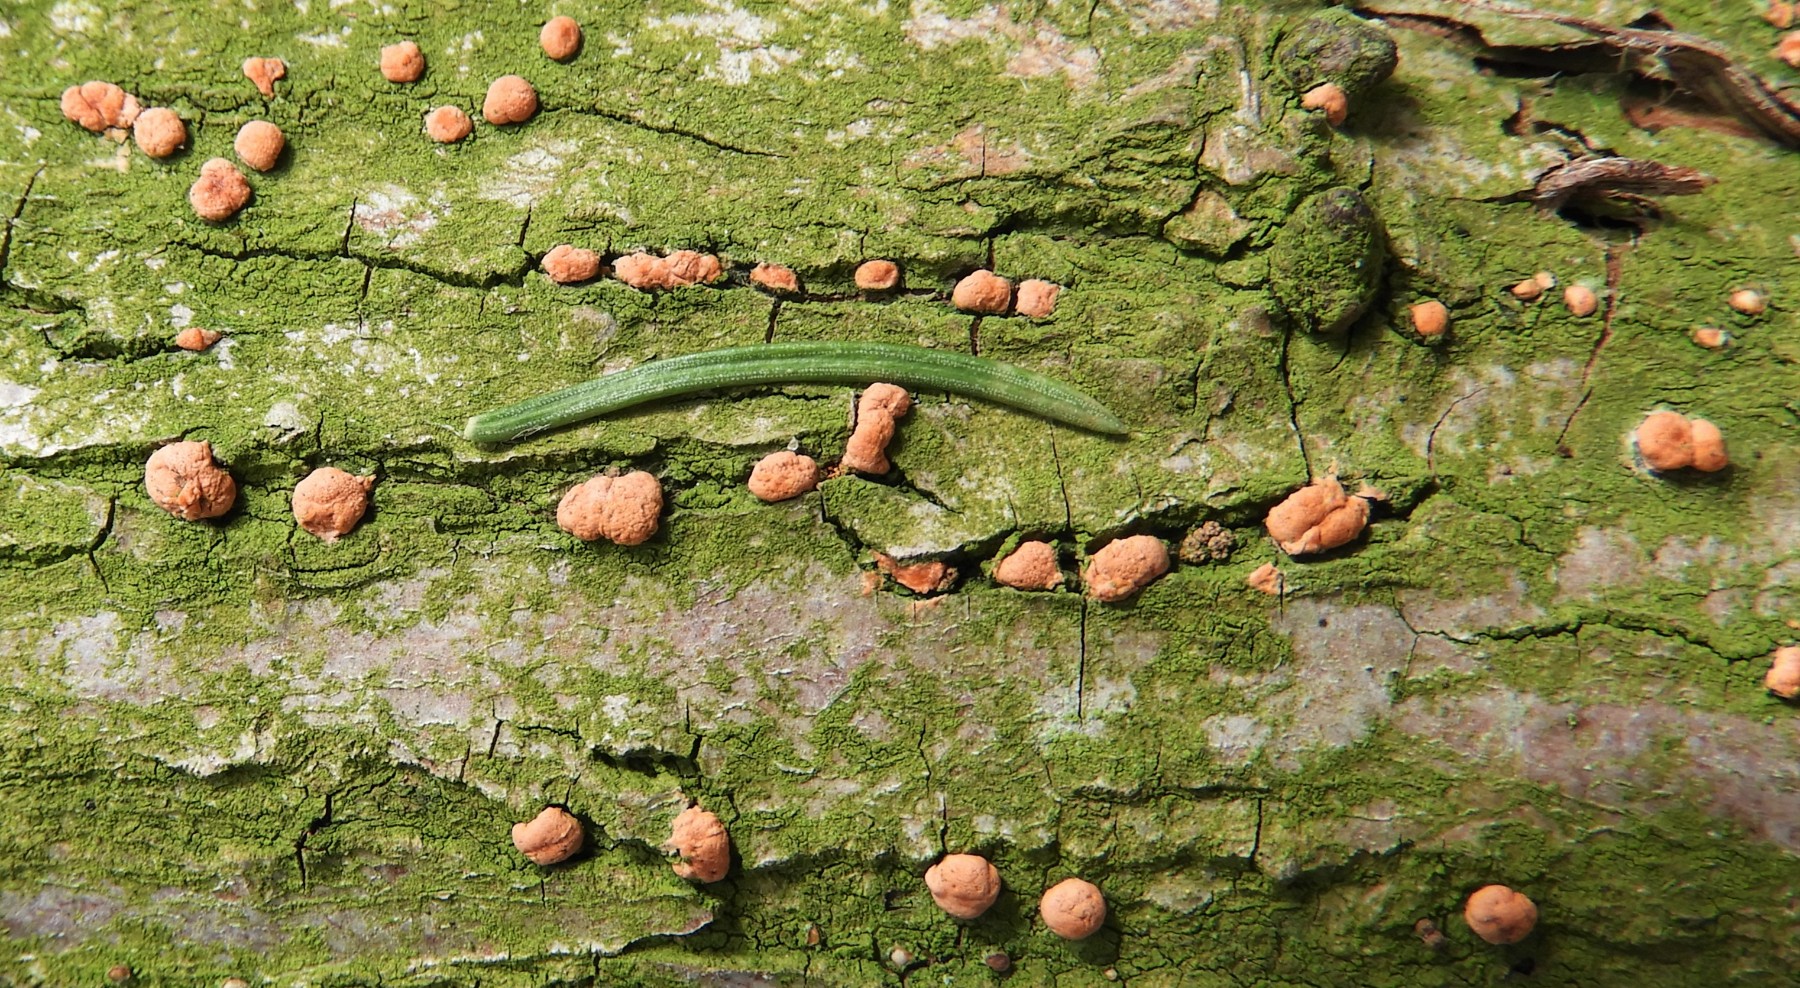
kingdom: Fungi
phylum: Ascomycota
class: Sordariomycetes
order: Hypocreales
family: Nectriaceae
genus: Nectria
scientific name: Nectria
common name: cinnobersvamp
